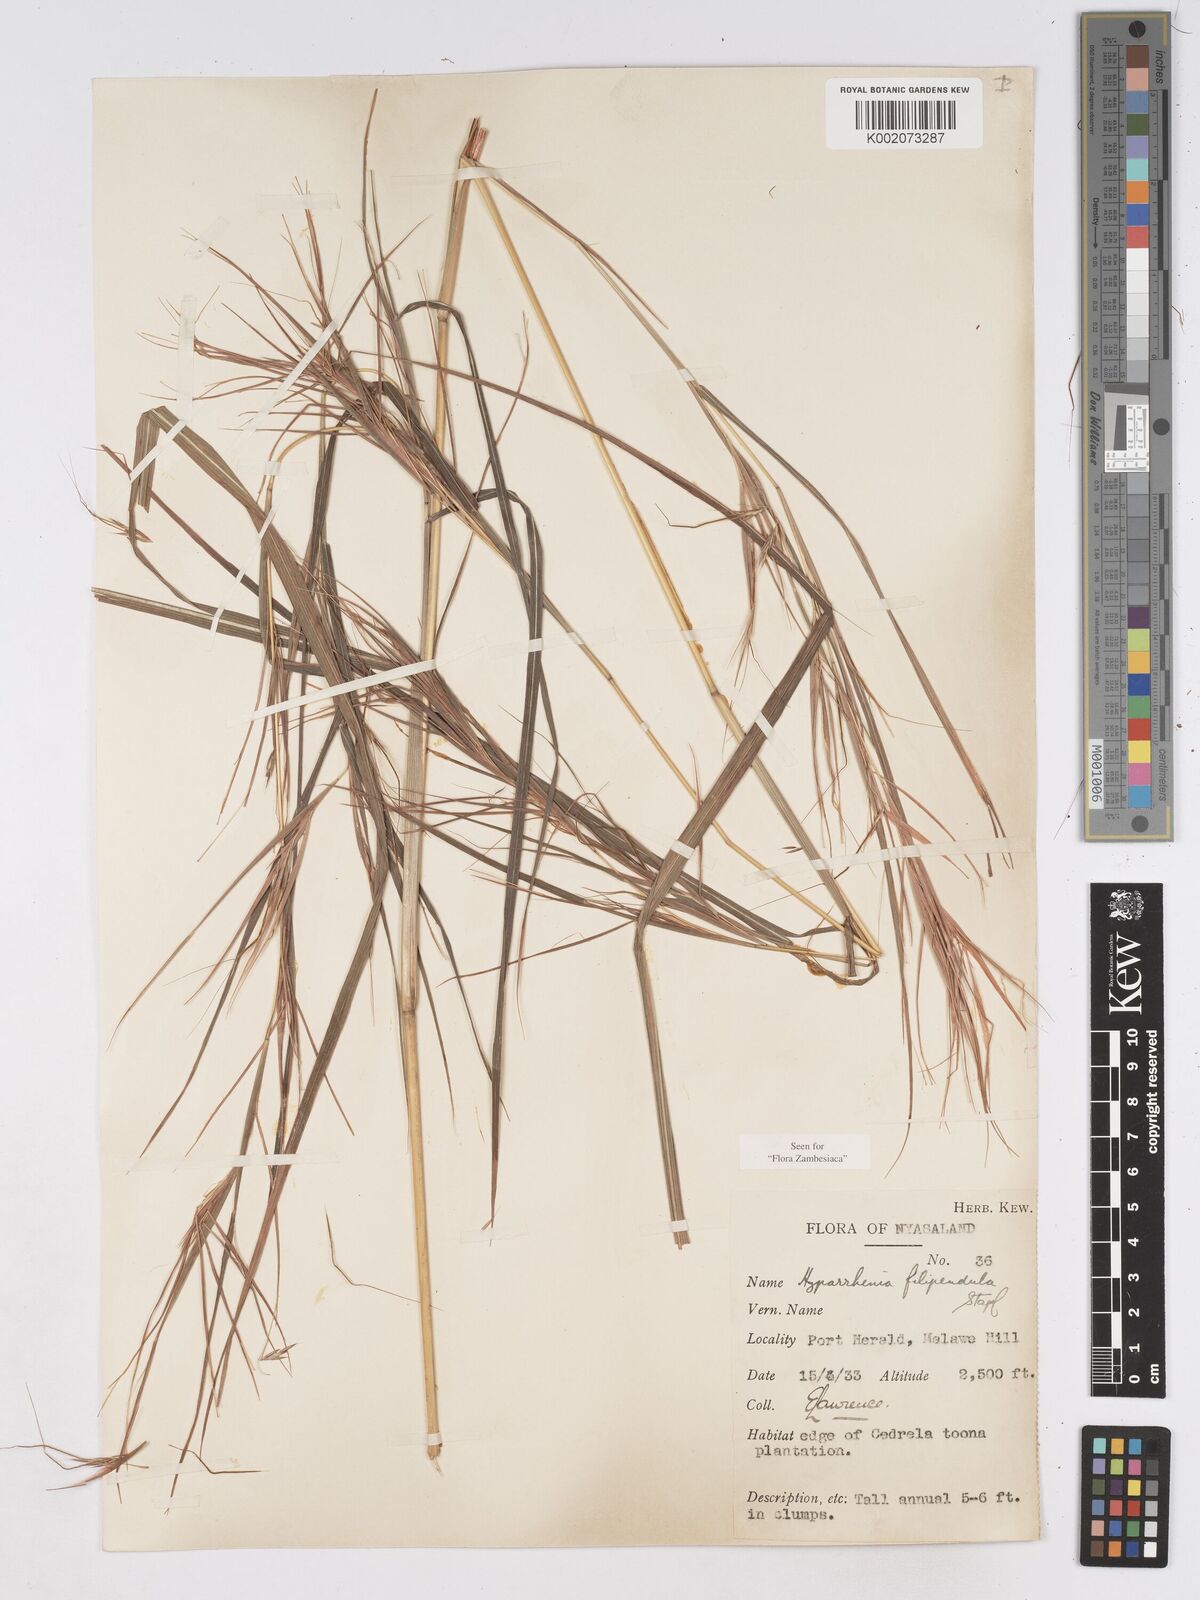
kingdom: Plantae
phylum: Tracheophyta
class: Liliopsida
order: Poales
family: Poaceae
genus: Hyparrhenia
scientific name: Hyparrhenia filipendula
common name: Tambookie grass
